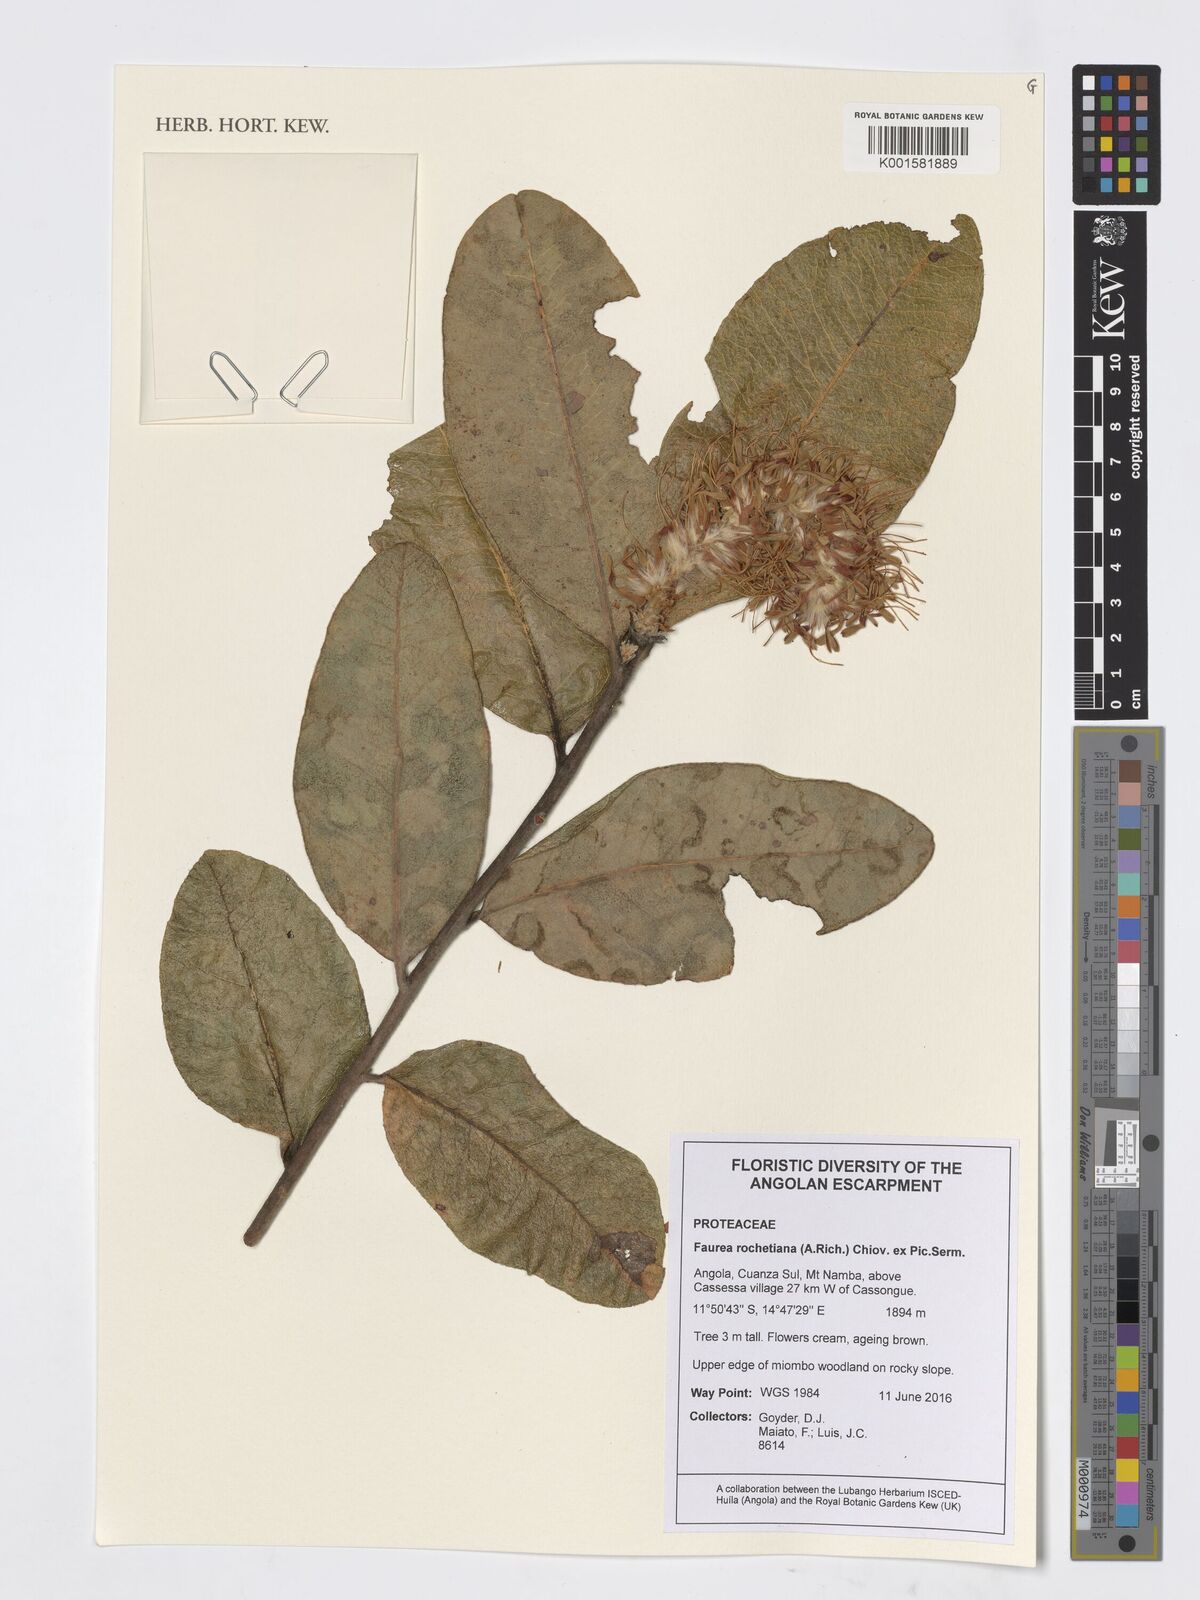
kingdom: Plantae
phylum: Tracheophyta
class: Magnoliopsida
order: Proteales
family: Proteaceae
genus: Faurea
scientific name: Faurea rochetiana
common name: Broad-leaved beech
